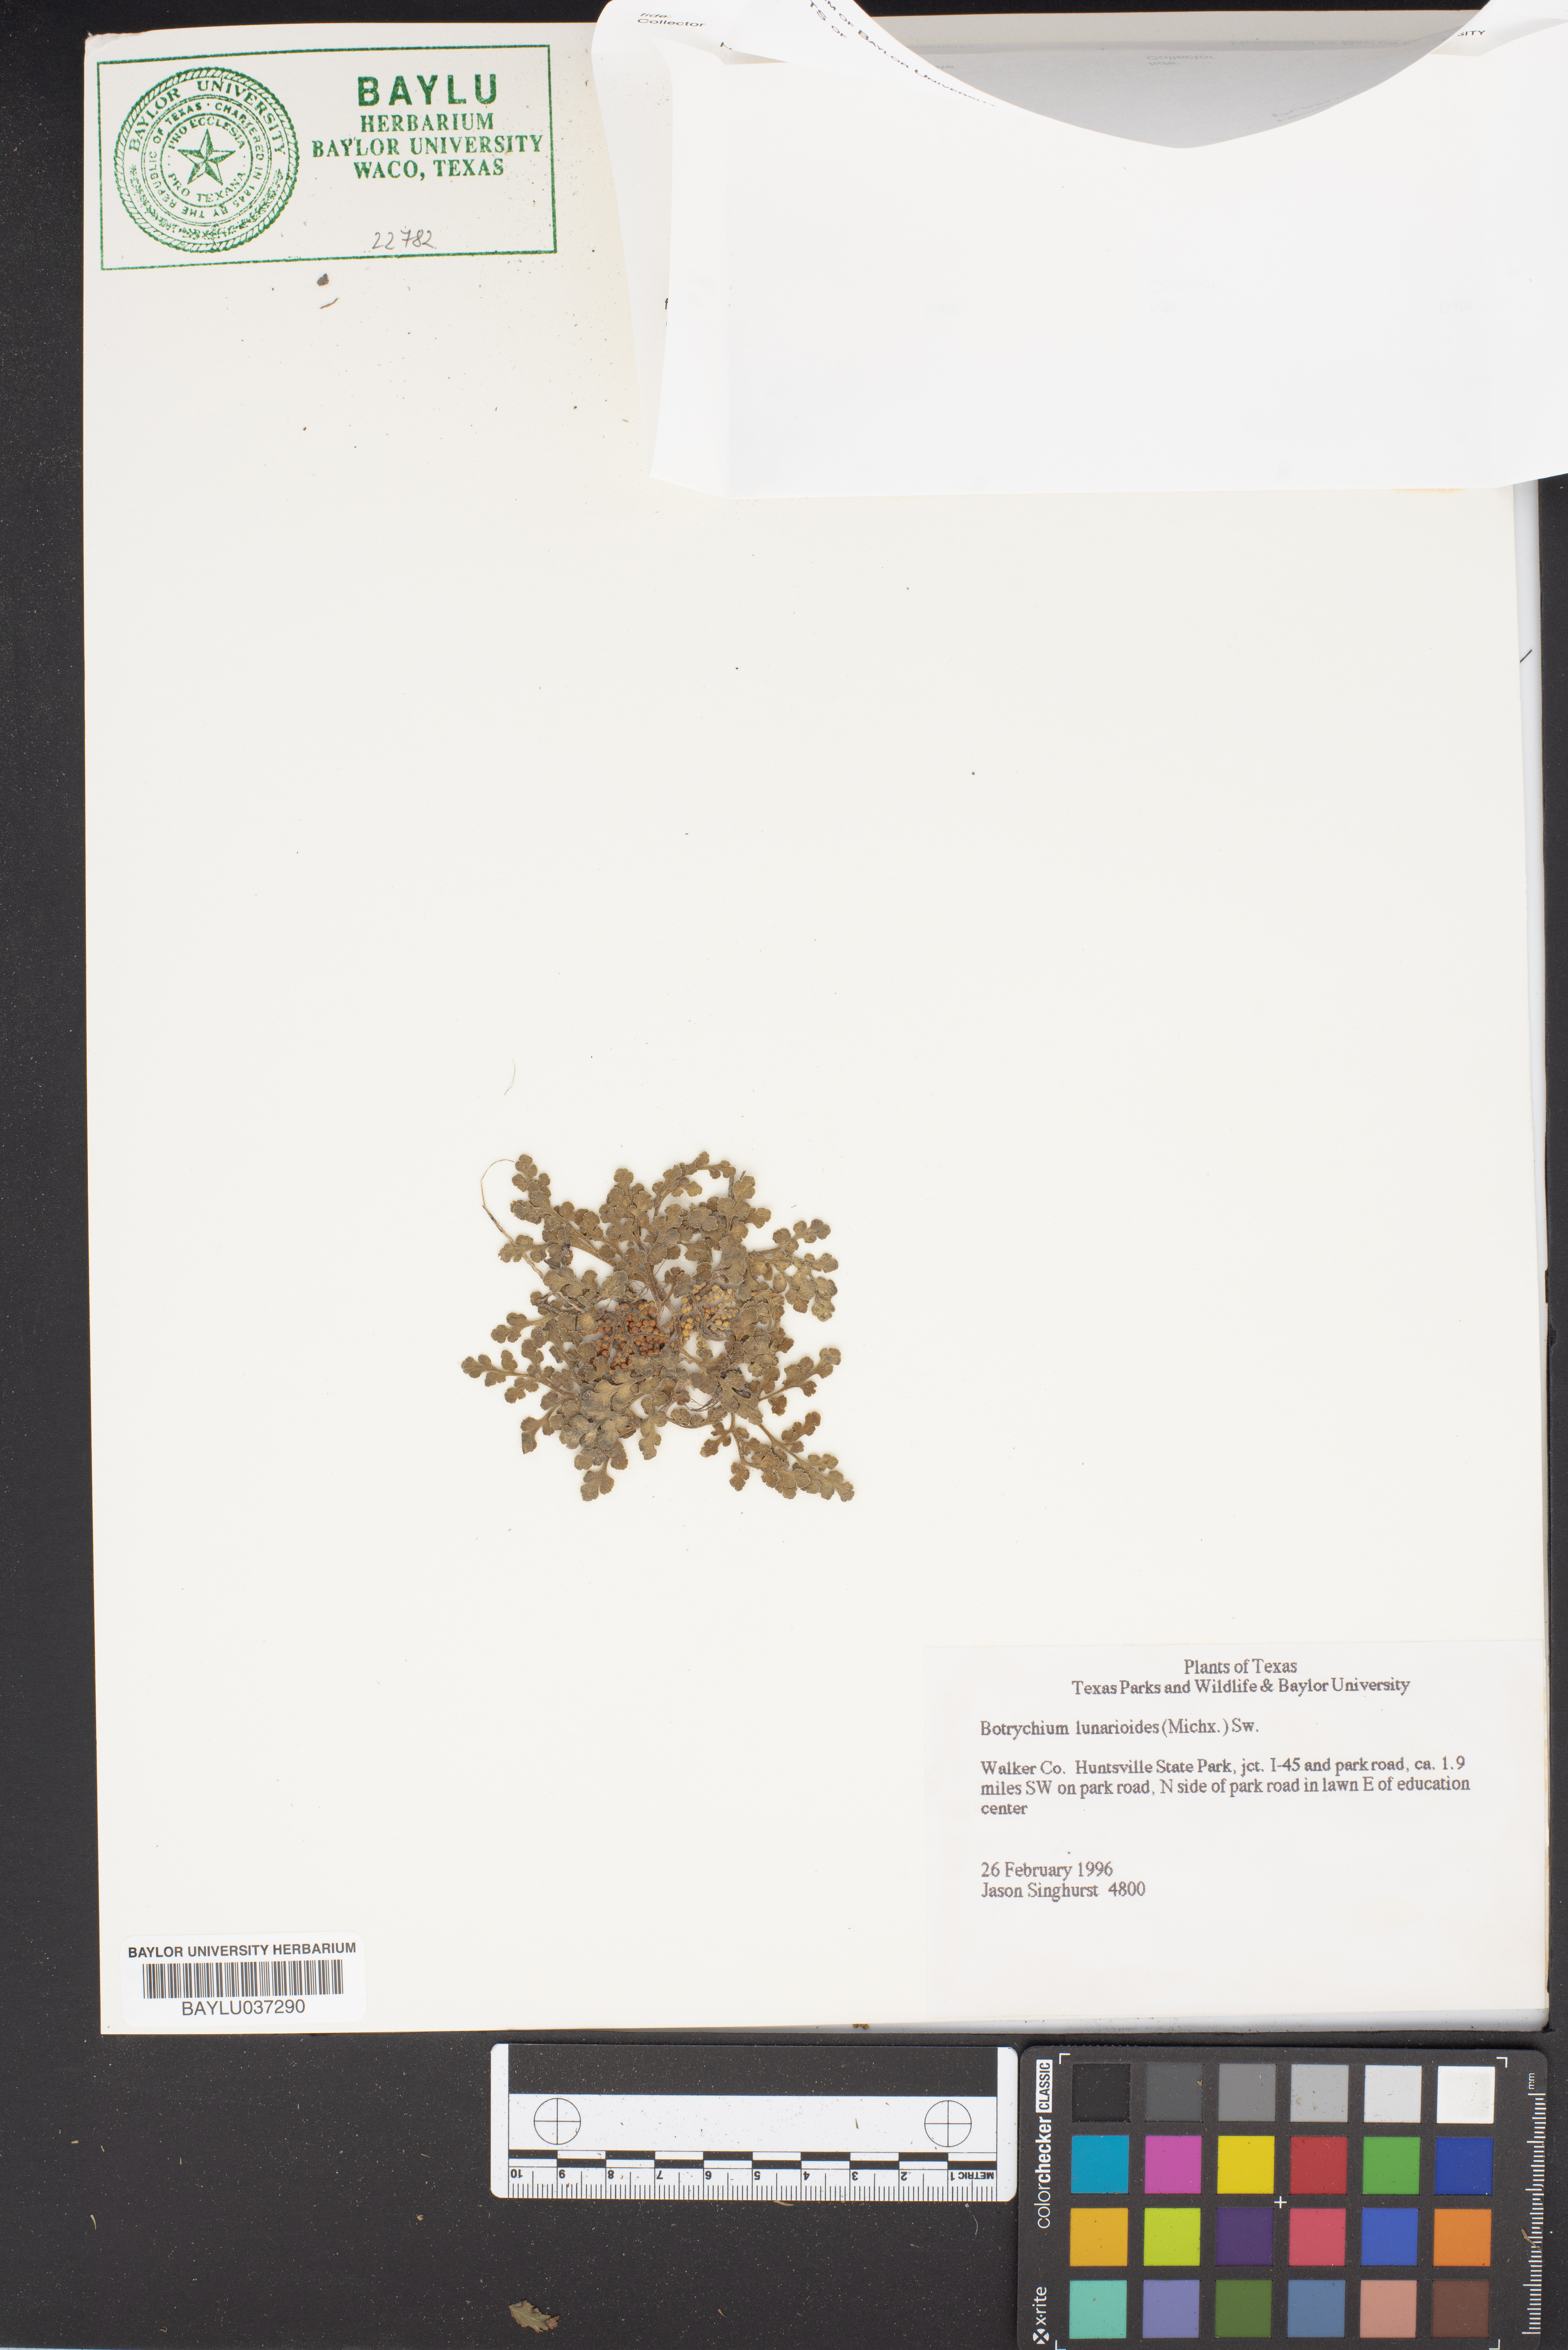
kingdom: Plantae
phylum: Tracheophyta
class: Polypodiopsida
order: Ophioglossales
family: Ophioglossaceae
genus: Sceptridium
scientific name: Sceptridium lunarioides
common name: Prostrate grapefern
